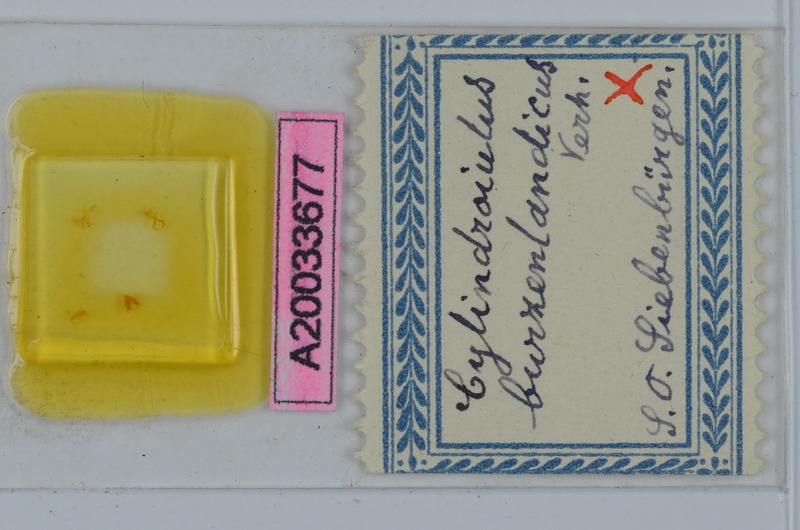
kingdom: Animalia
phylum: Arthropoda
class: Diplopoda
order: Julida
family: Julidae
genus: Cylindroiulus
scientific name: Cylindroiulus burzenlandicus
